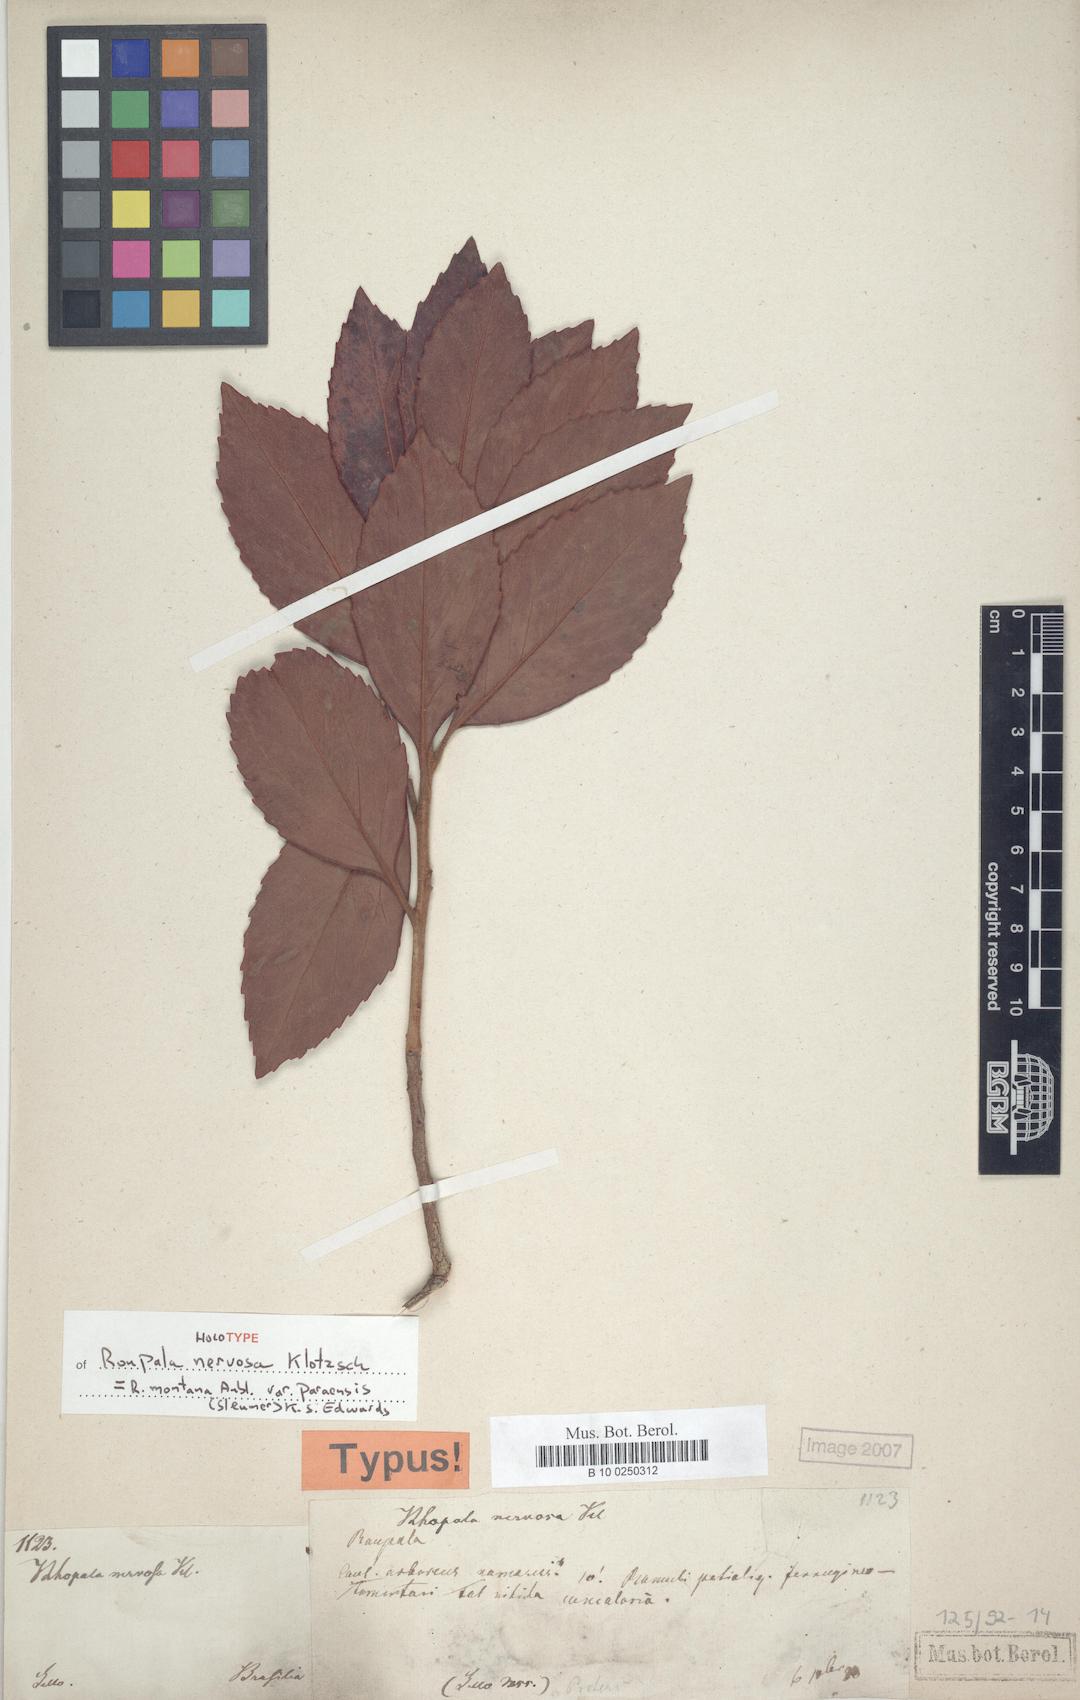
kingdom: Plantae
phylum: Tracheophyta
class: Magnoliopsida
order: Proteales
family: Proteaceae
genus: Roupala
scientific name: Roupala montana
